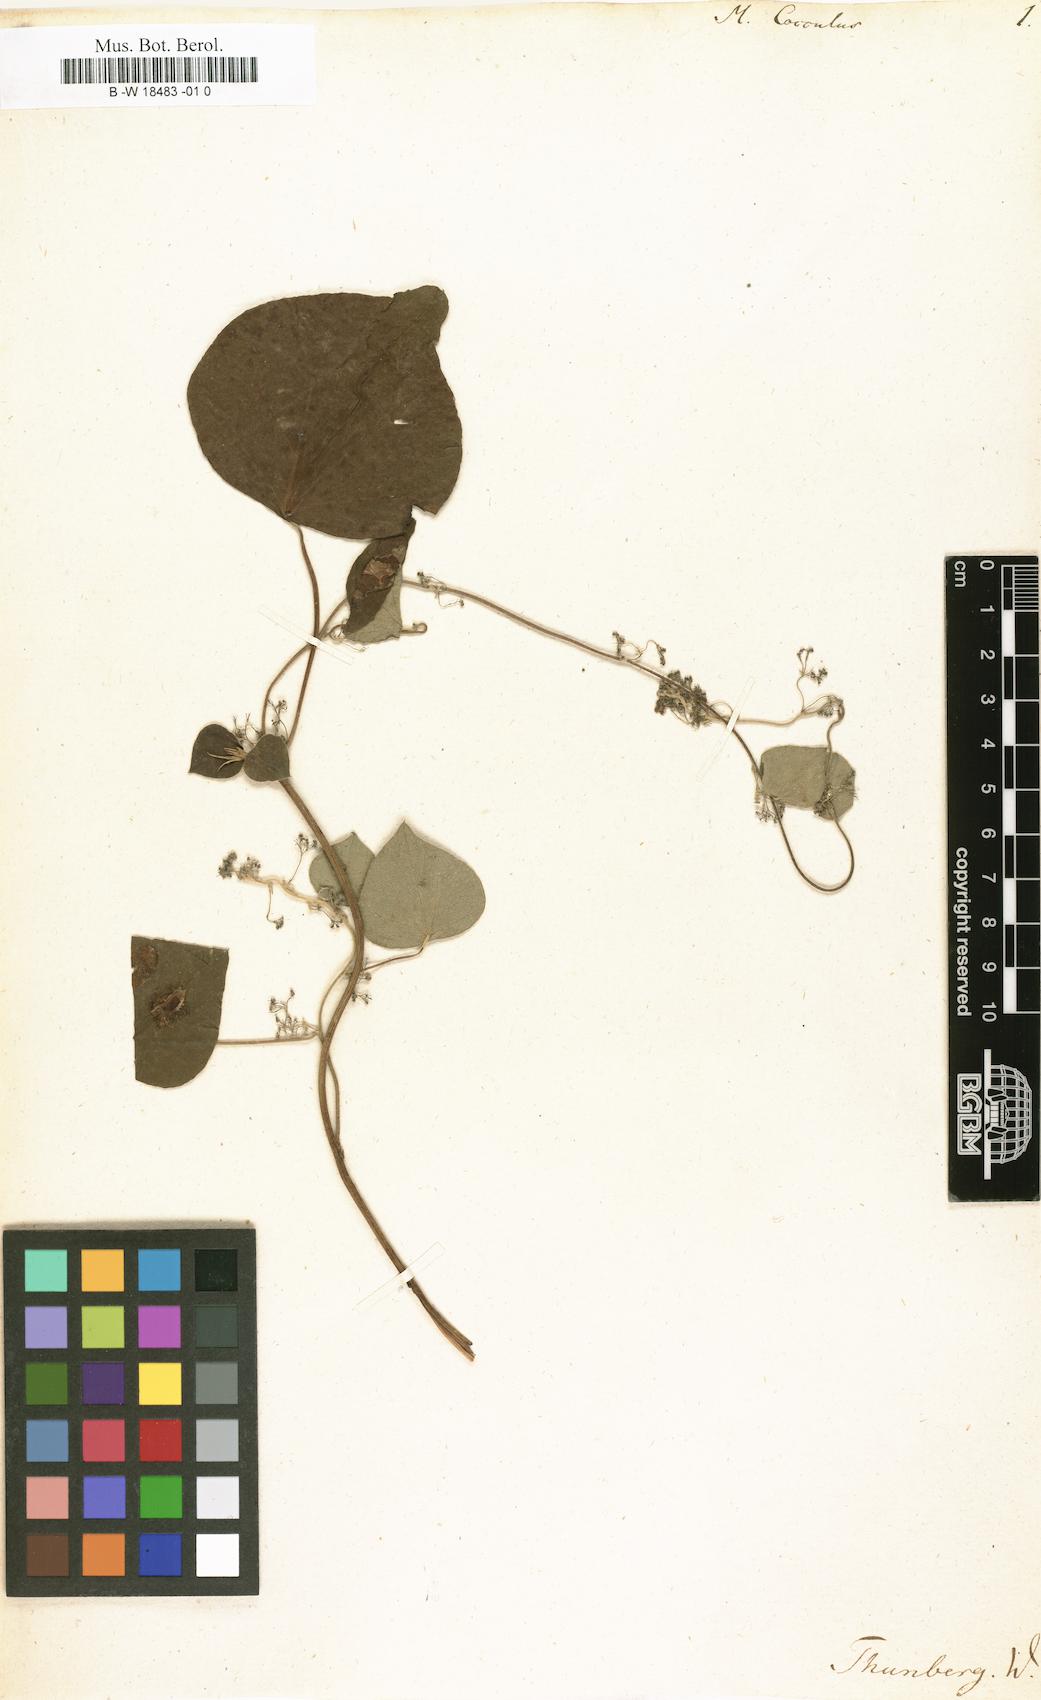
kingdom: Plantae
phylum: Tracheophyta
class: Magnoliopsida
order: Ranunculales
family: Menispermaceae
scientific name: Menispermaceae
